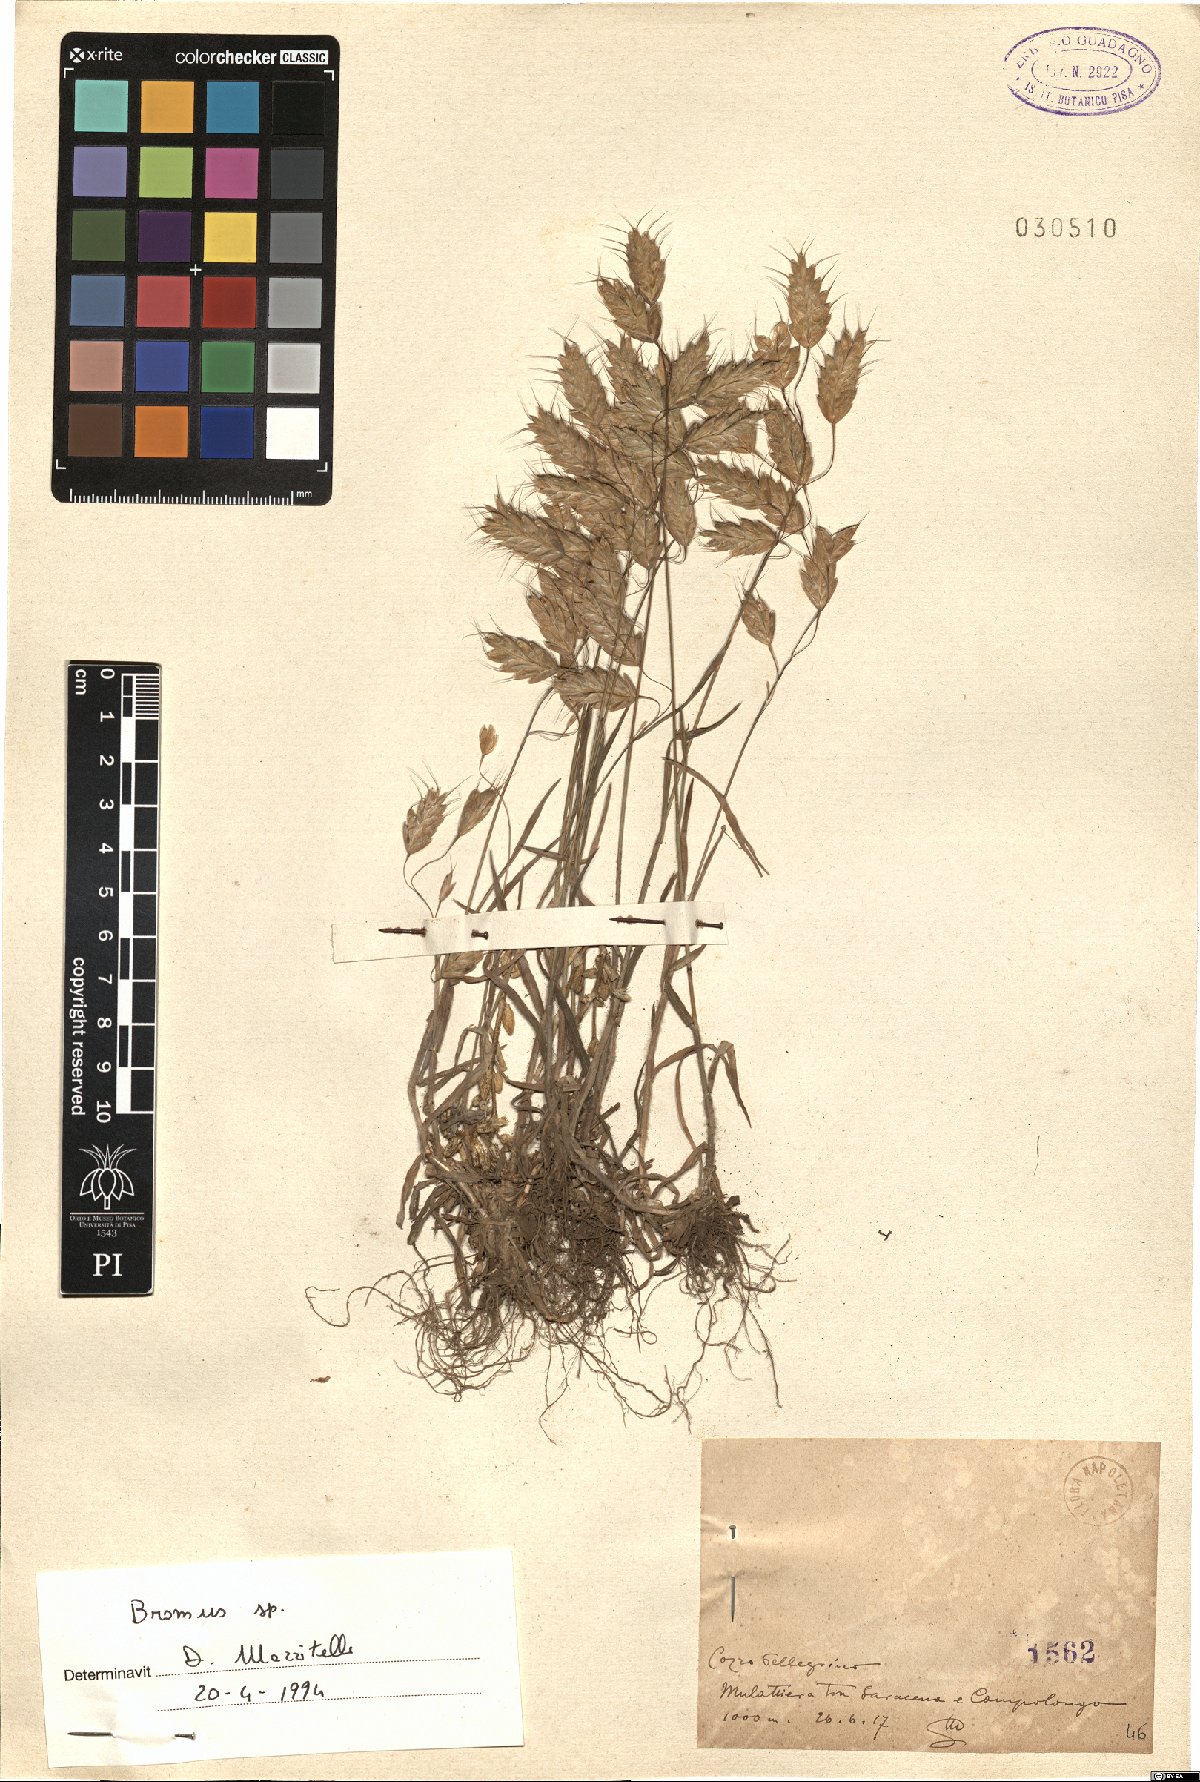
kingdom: Plantae
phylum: Tracheophyta
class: Liliopsida
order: Poales
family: Poaceae
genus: Bromus
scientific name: Bromus
